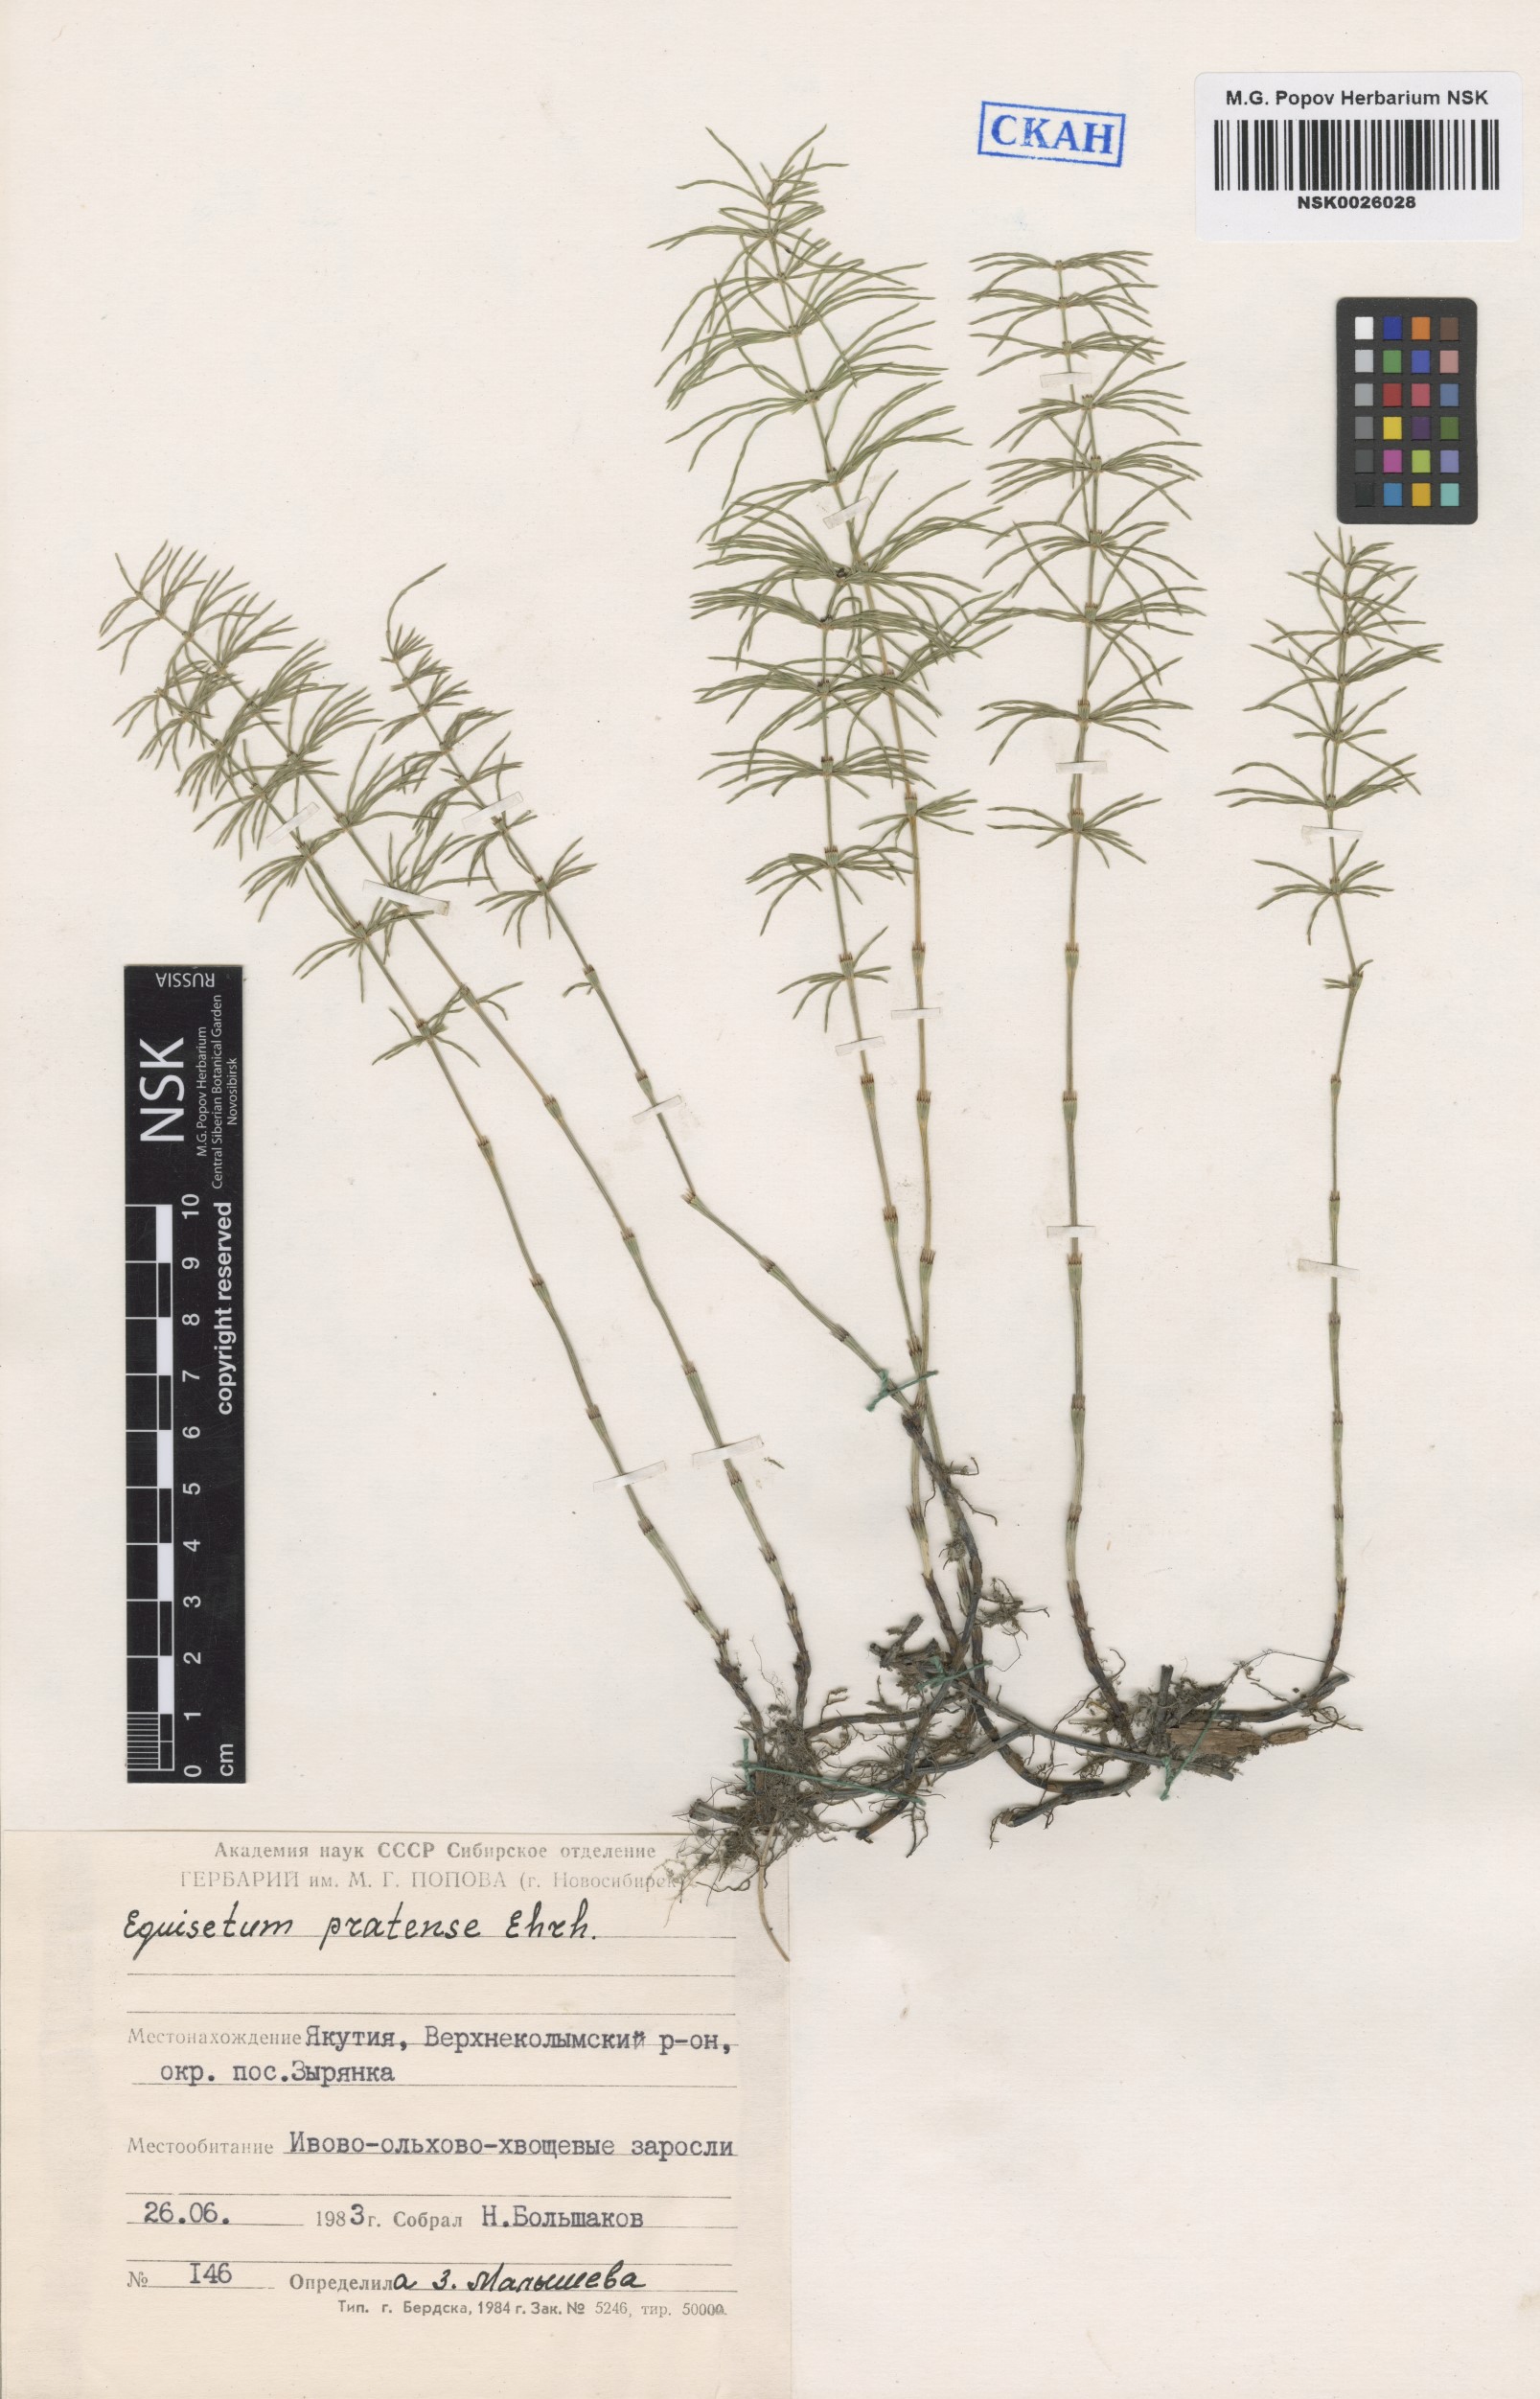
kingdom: Plantae
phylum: Tracheophyta
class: Polypodiopsida
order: Equisetales
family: Equisetaceae
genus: Equisetum
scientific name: Equisetum pratense
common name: Meadow horsetail
